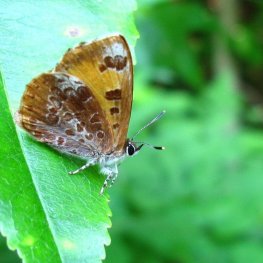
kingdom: Animalia
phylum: Arthropoda
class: Insecta
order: Lepidoptera
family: Lycaenidae
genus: Feniseca
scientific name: Feniseca tarquinius
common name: Harvester
